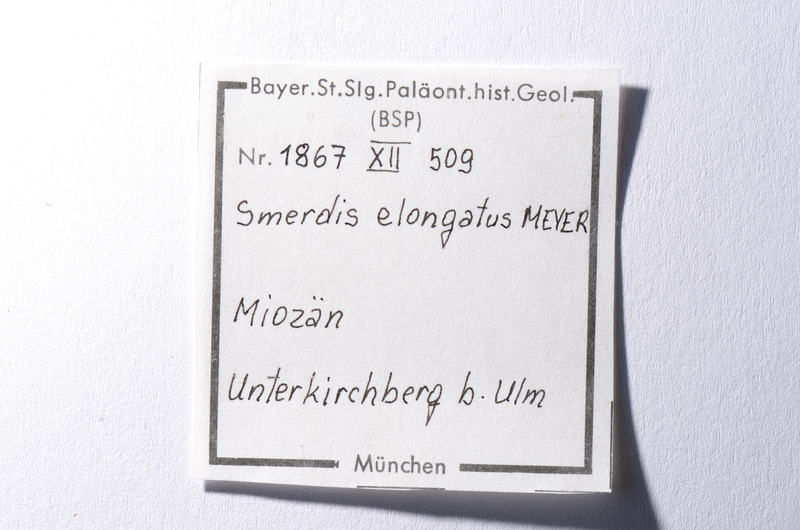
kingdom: Animalia
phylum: Arthropoda
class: Malacostraca
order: Stomatopoda
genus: Smerdis
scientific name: Smerdis
